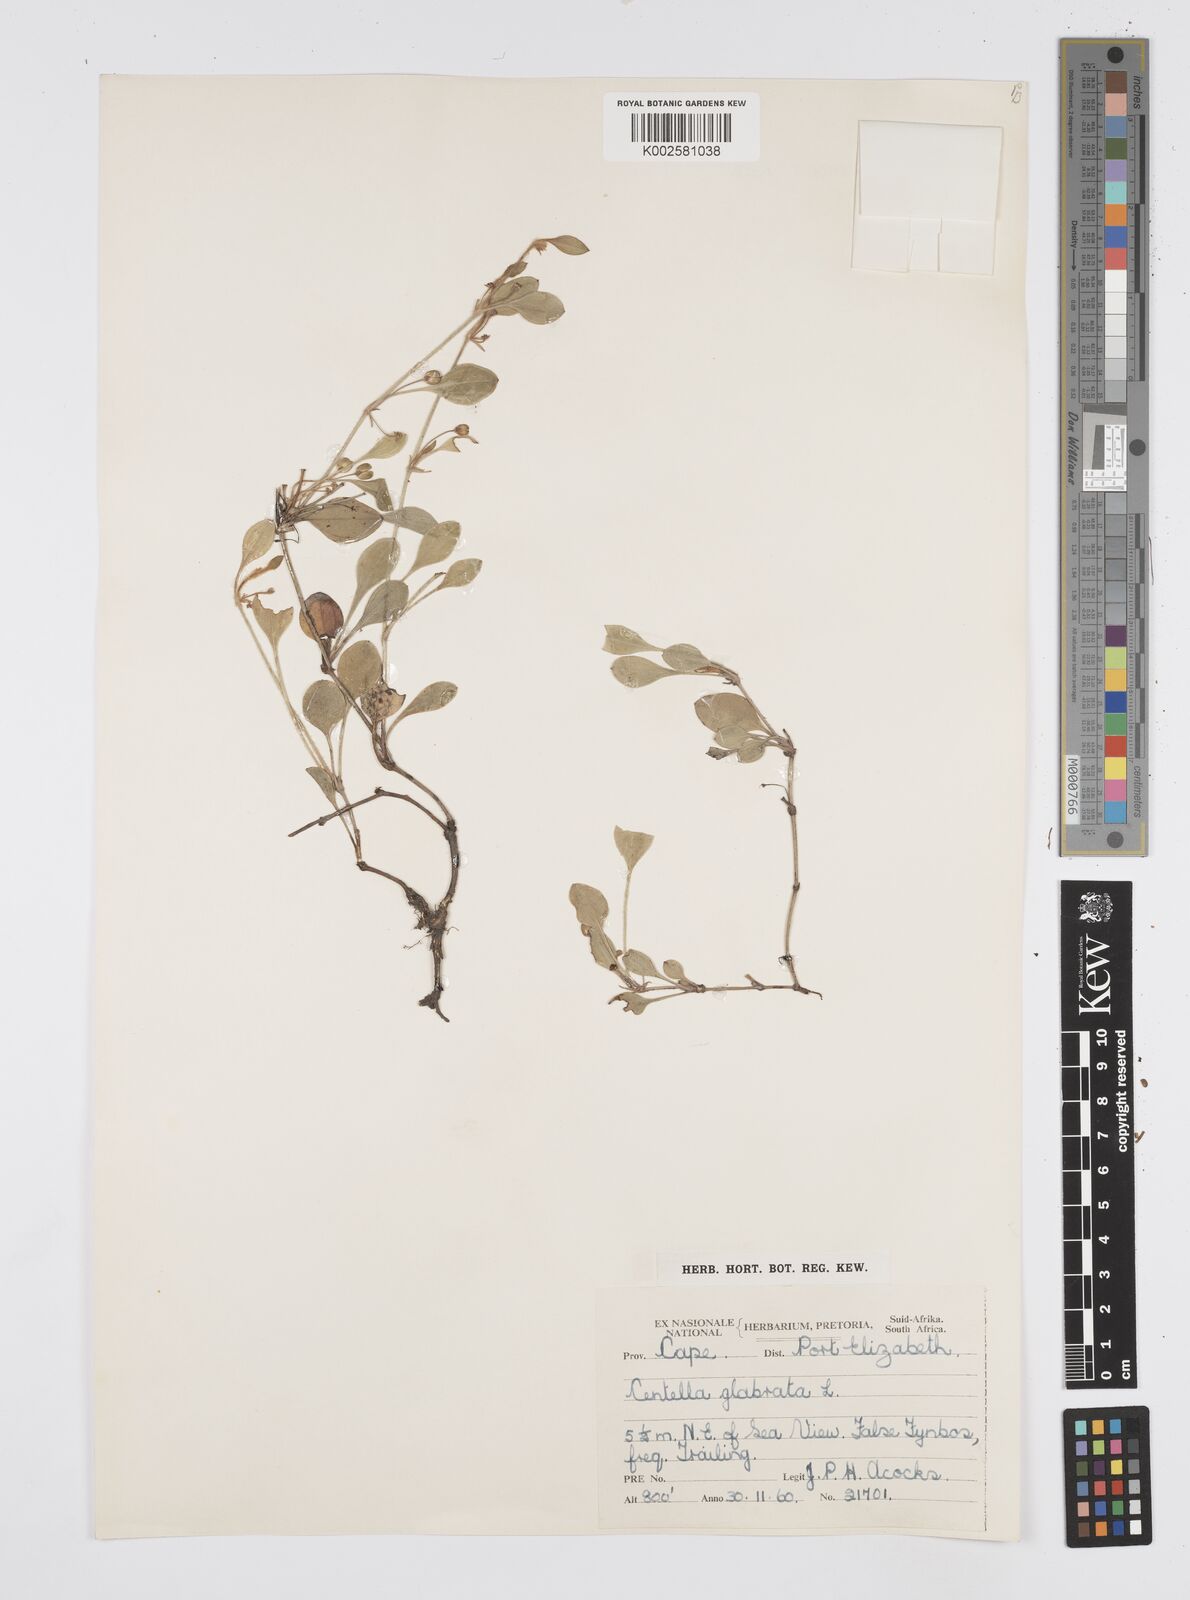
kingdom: Plantae
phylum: Tracheophyta
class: Magnoliopsida
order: Apiales
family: Apiaceae
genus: Centella
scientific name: Centella glabrata
